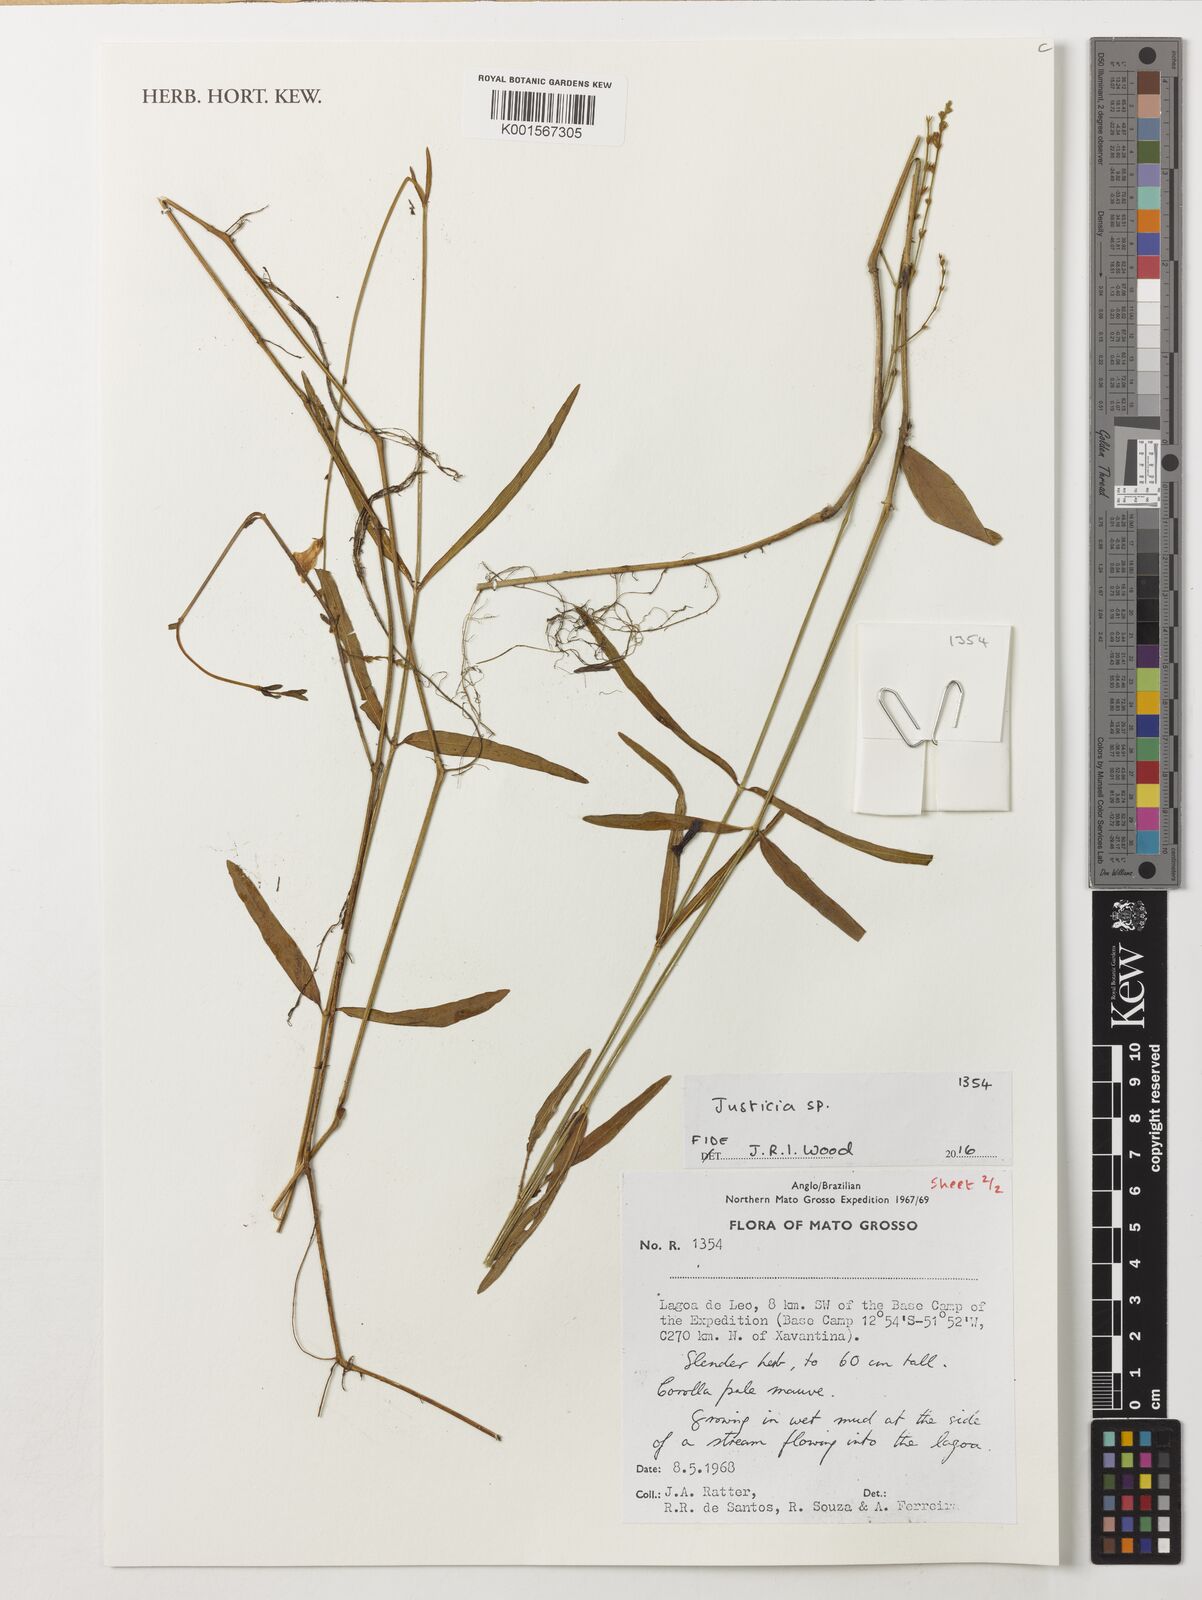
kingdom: Plantae
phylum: Tracheophyta
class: Magnoliopsida
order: Lamiales
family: Acanthaceae
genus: Justicia
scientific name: Justicia
